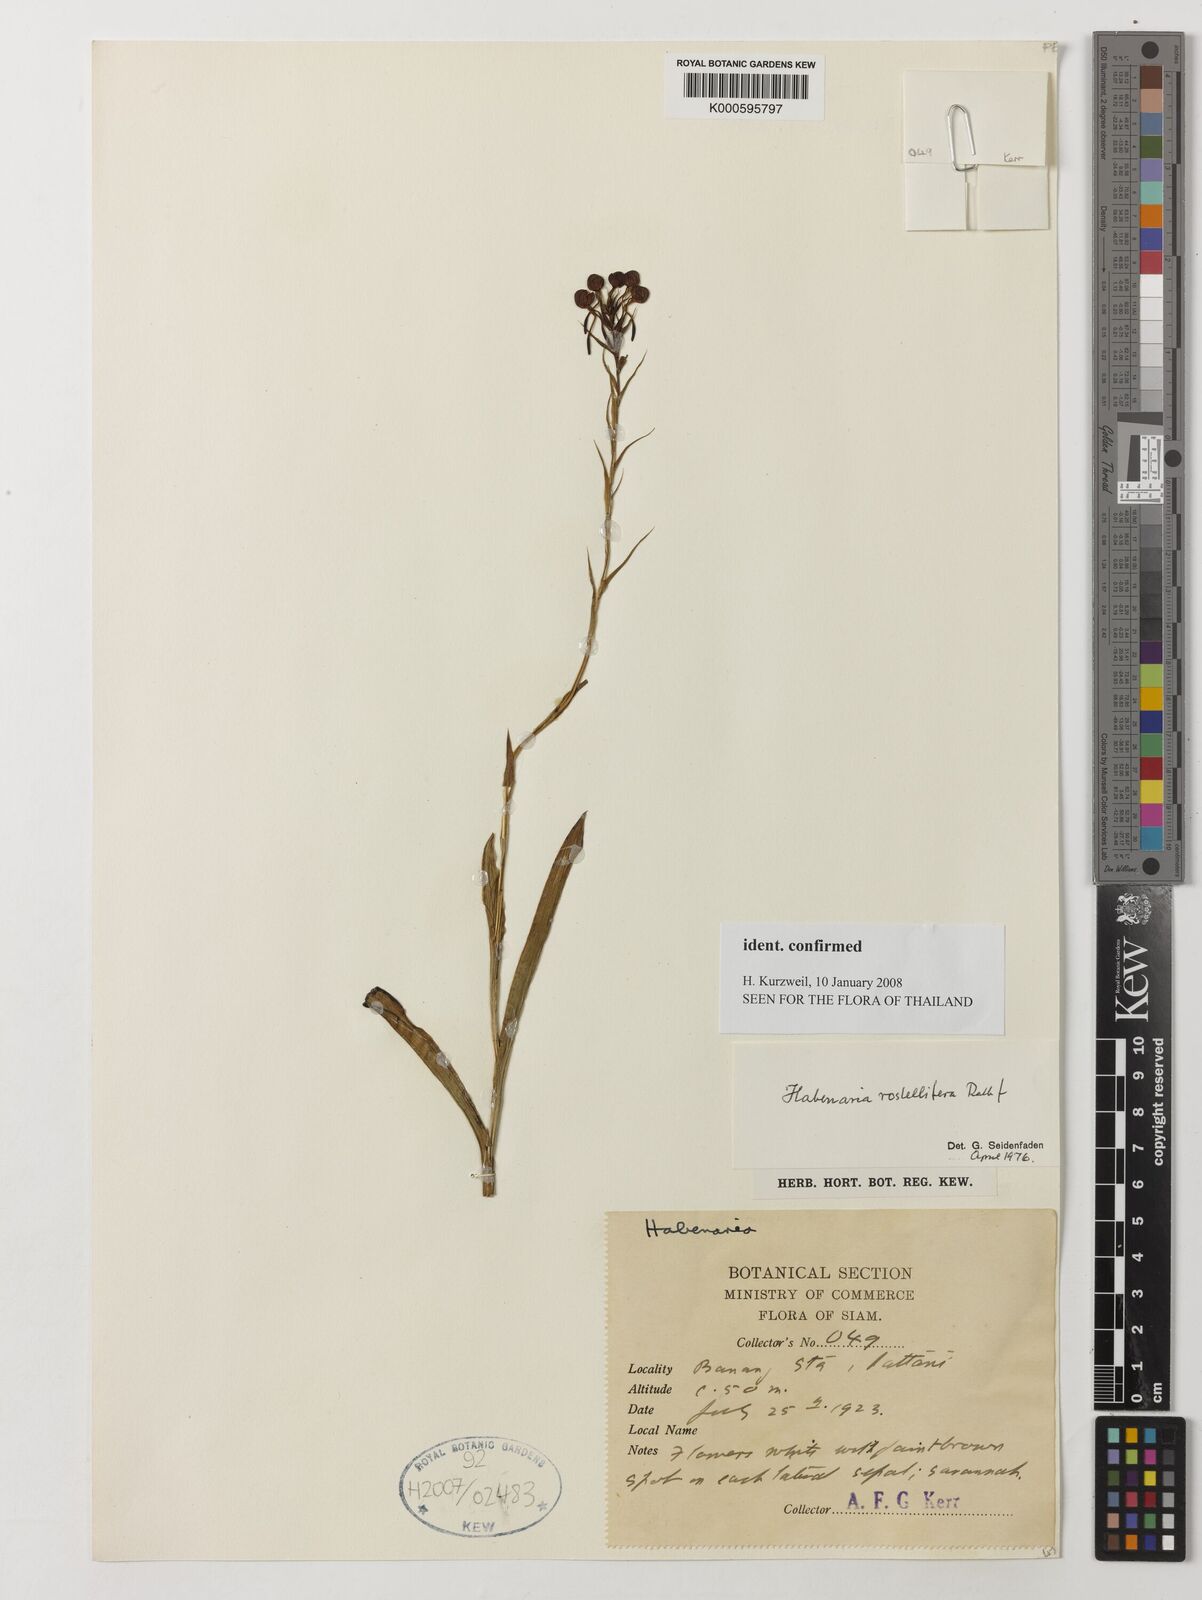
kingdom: Plantae
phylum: Tracheophyta
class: Liliopsida
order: Asparagales
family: Orchidaceae
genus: Habenaria
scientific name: Habenaria rostellifera
